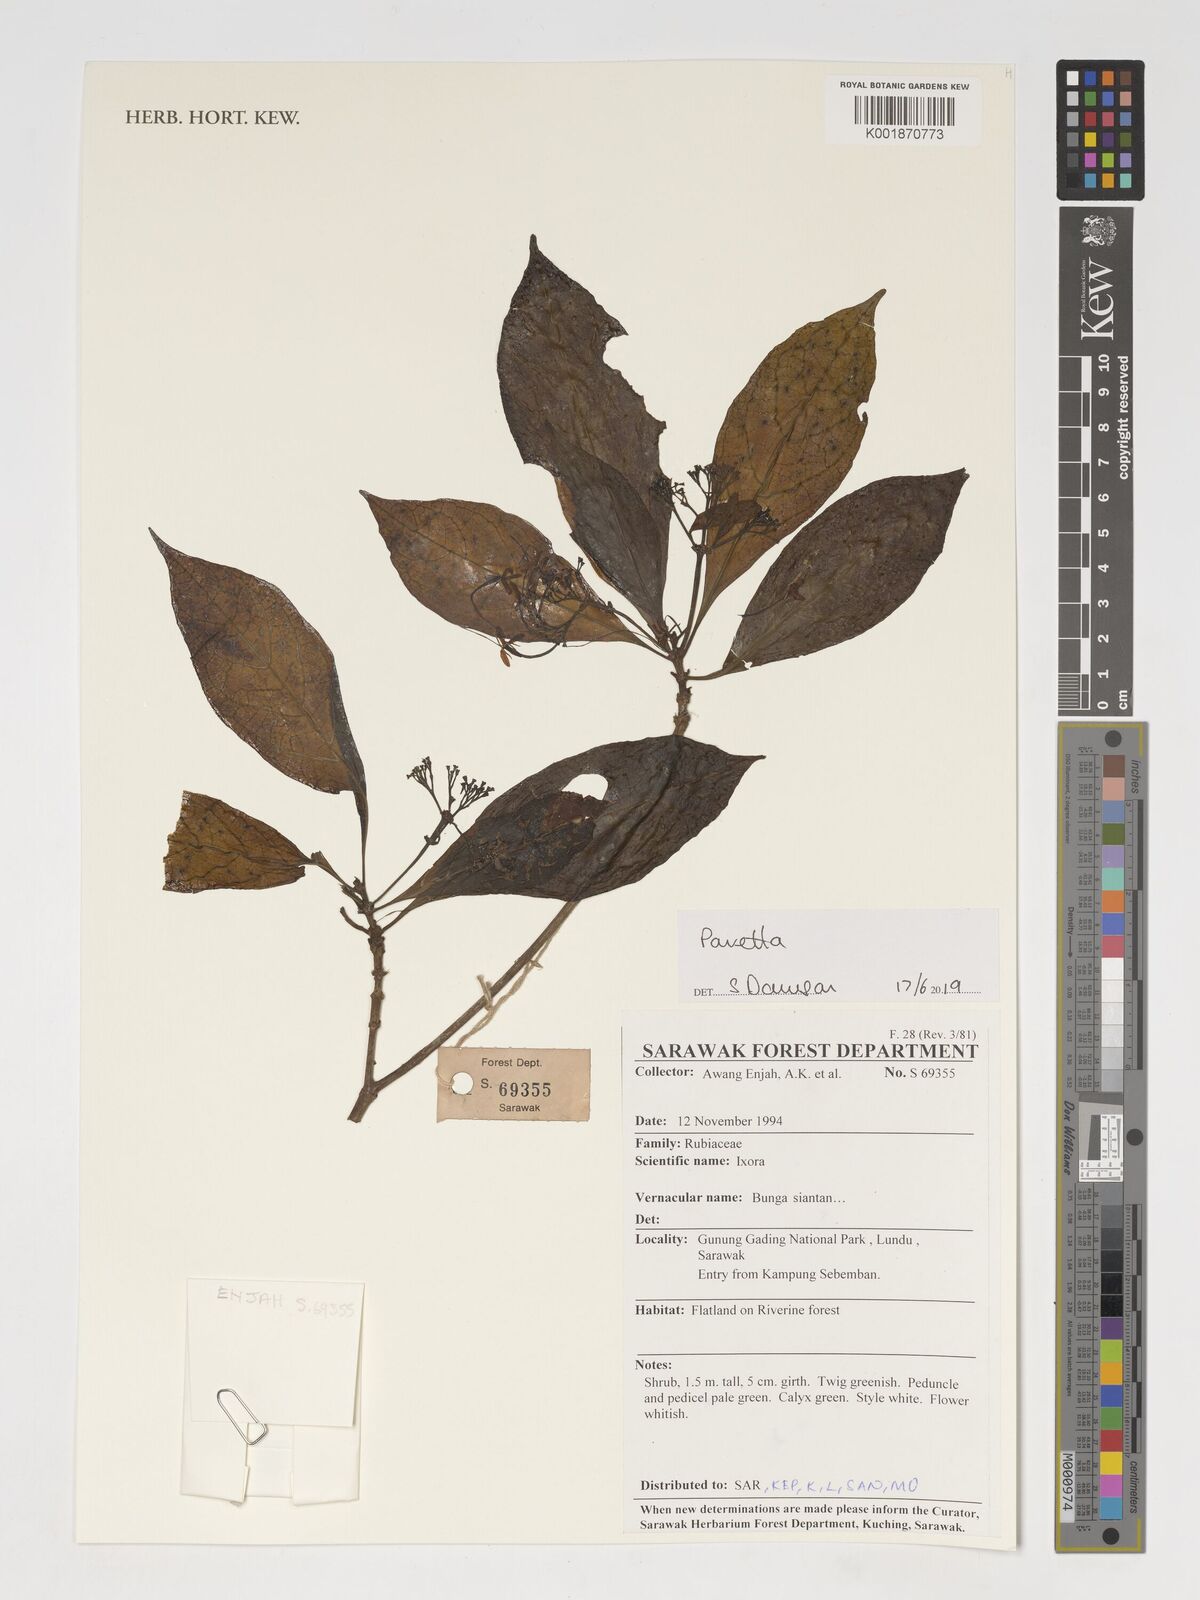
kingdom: Plantae
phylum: Tracheophyta
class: Magnoliopsida
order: Gentianales
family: Rubiaceae
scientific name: Rubiaceae
